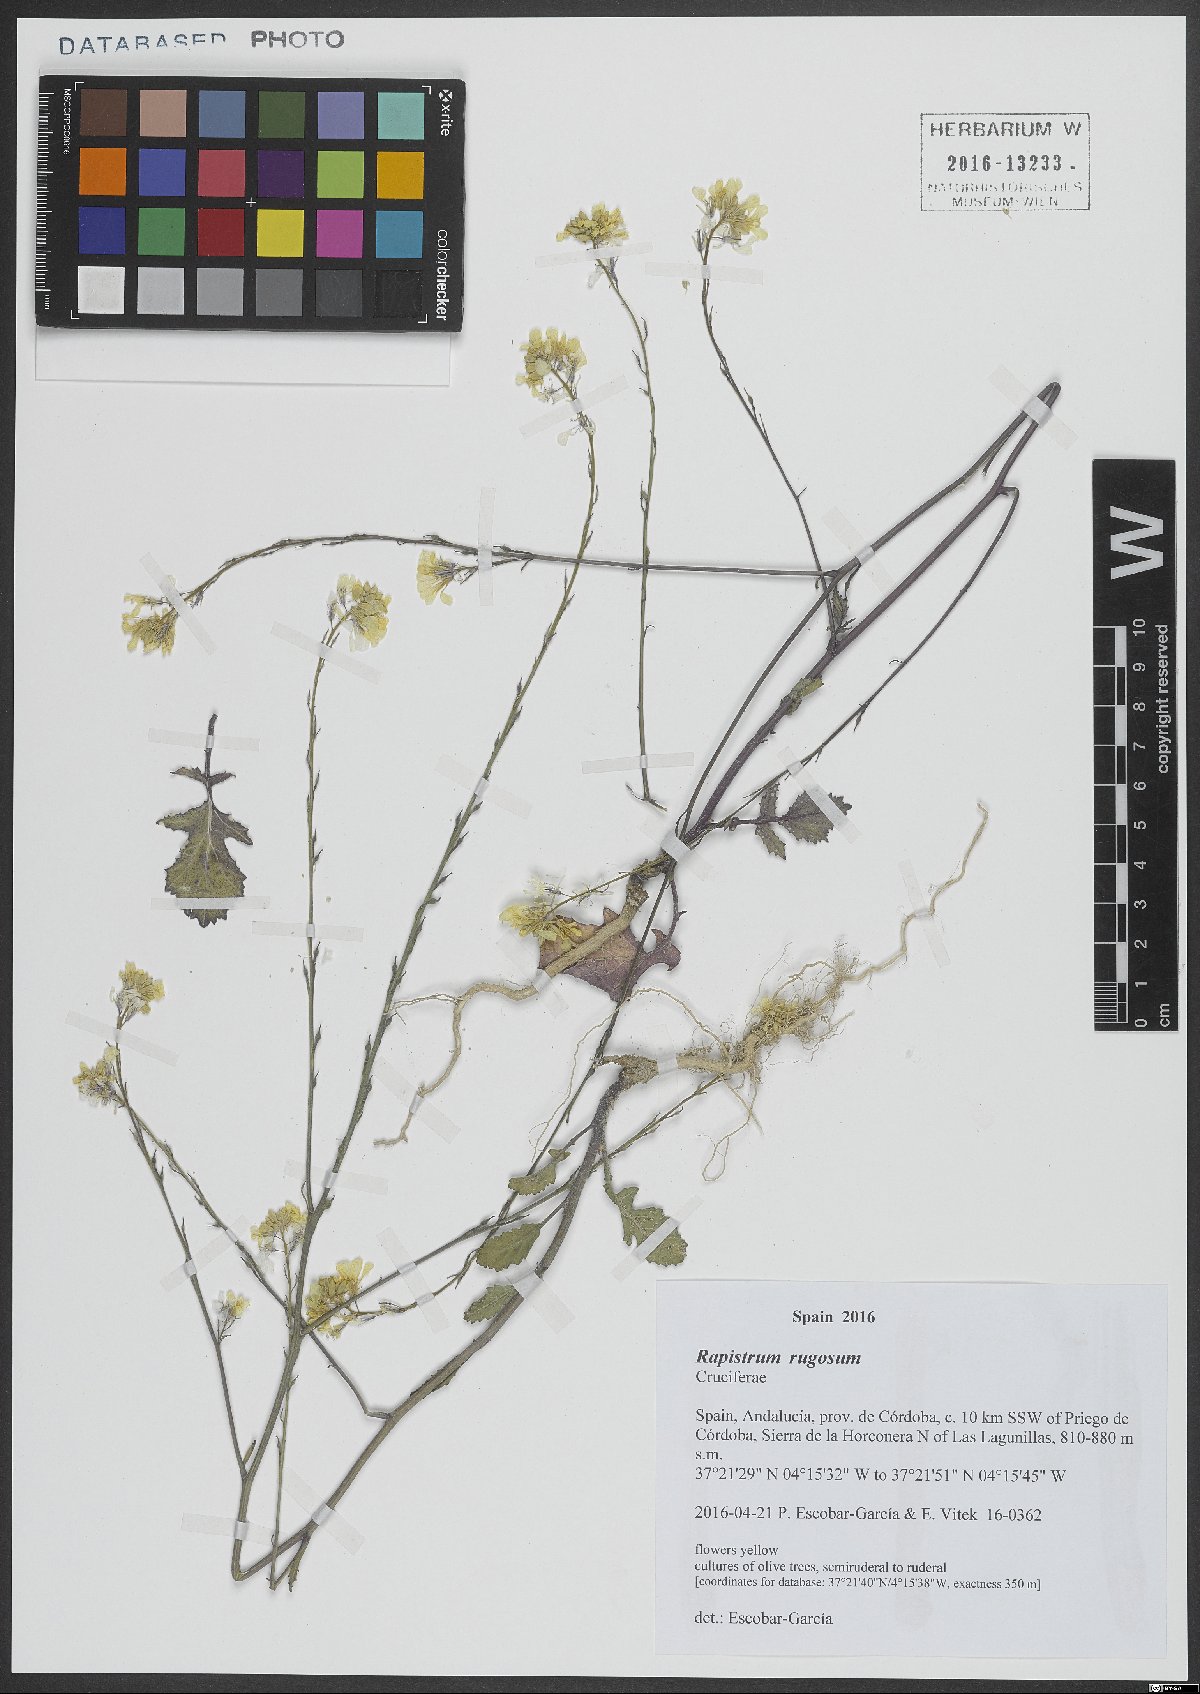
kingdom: Plantae
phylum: Tracheophyta
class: Magnoliopsida
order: Brassicales
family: Brassicaceae
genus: Rapistrum
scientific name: Rapistrum rugosum
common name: Annual bastardcabbage
